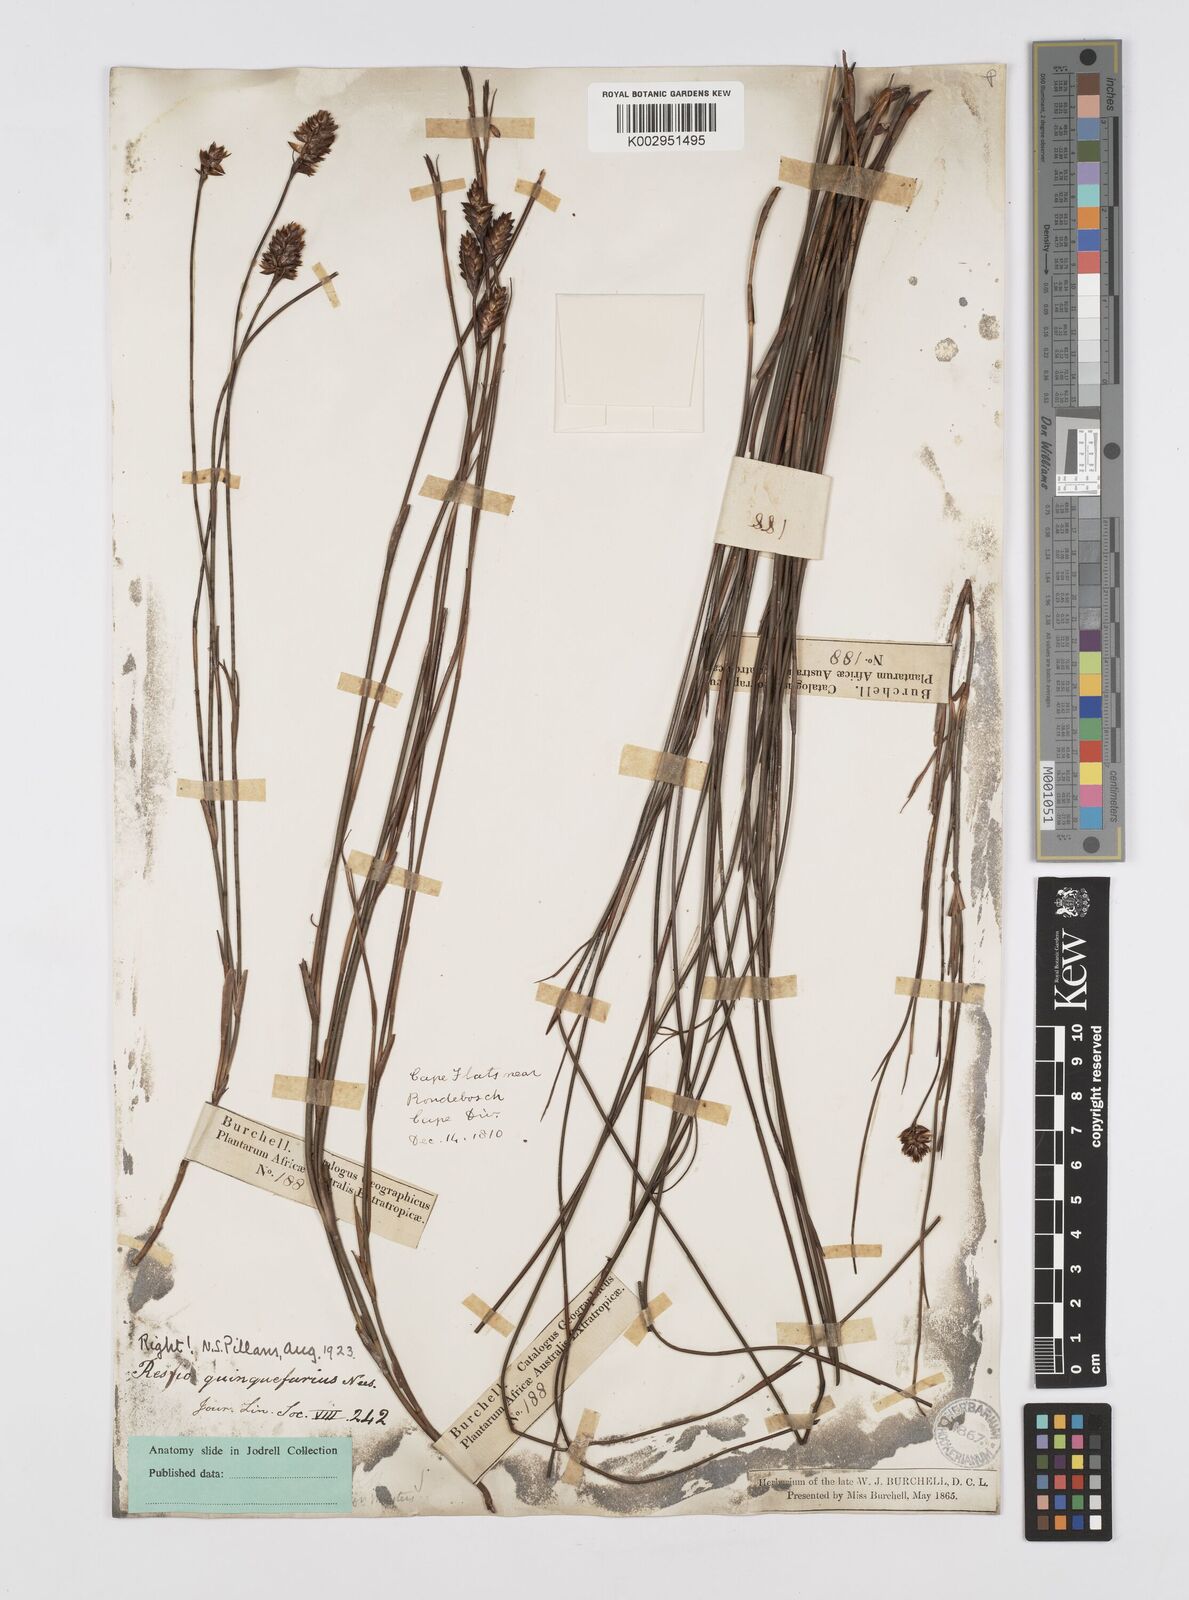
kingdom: Plantae
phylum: Tracheophyta
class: Liliopsida
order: Poales
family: Restionaceae
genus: Restio
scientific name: Restio quinquefarius
